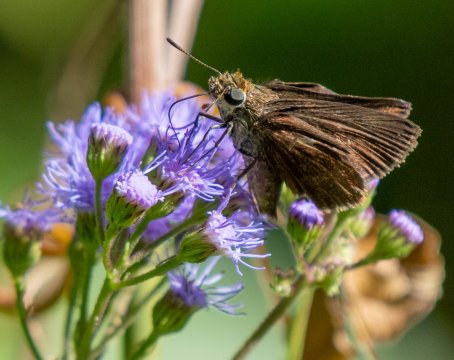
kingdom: Animalia
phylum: Arthropoda
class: Insecta
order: Lepidoptera
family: Hesperiidae
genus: Euphyes
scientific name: Euphyes vestris
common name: Dun Skipper
